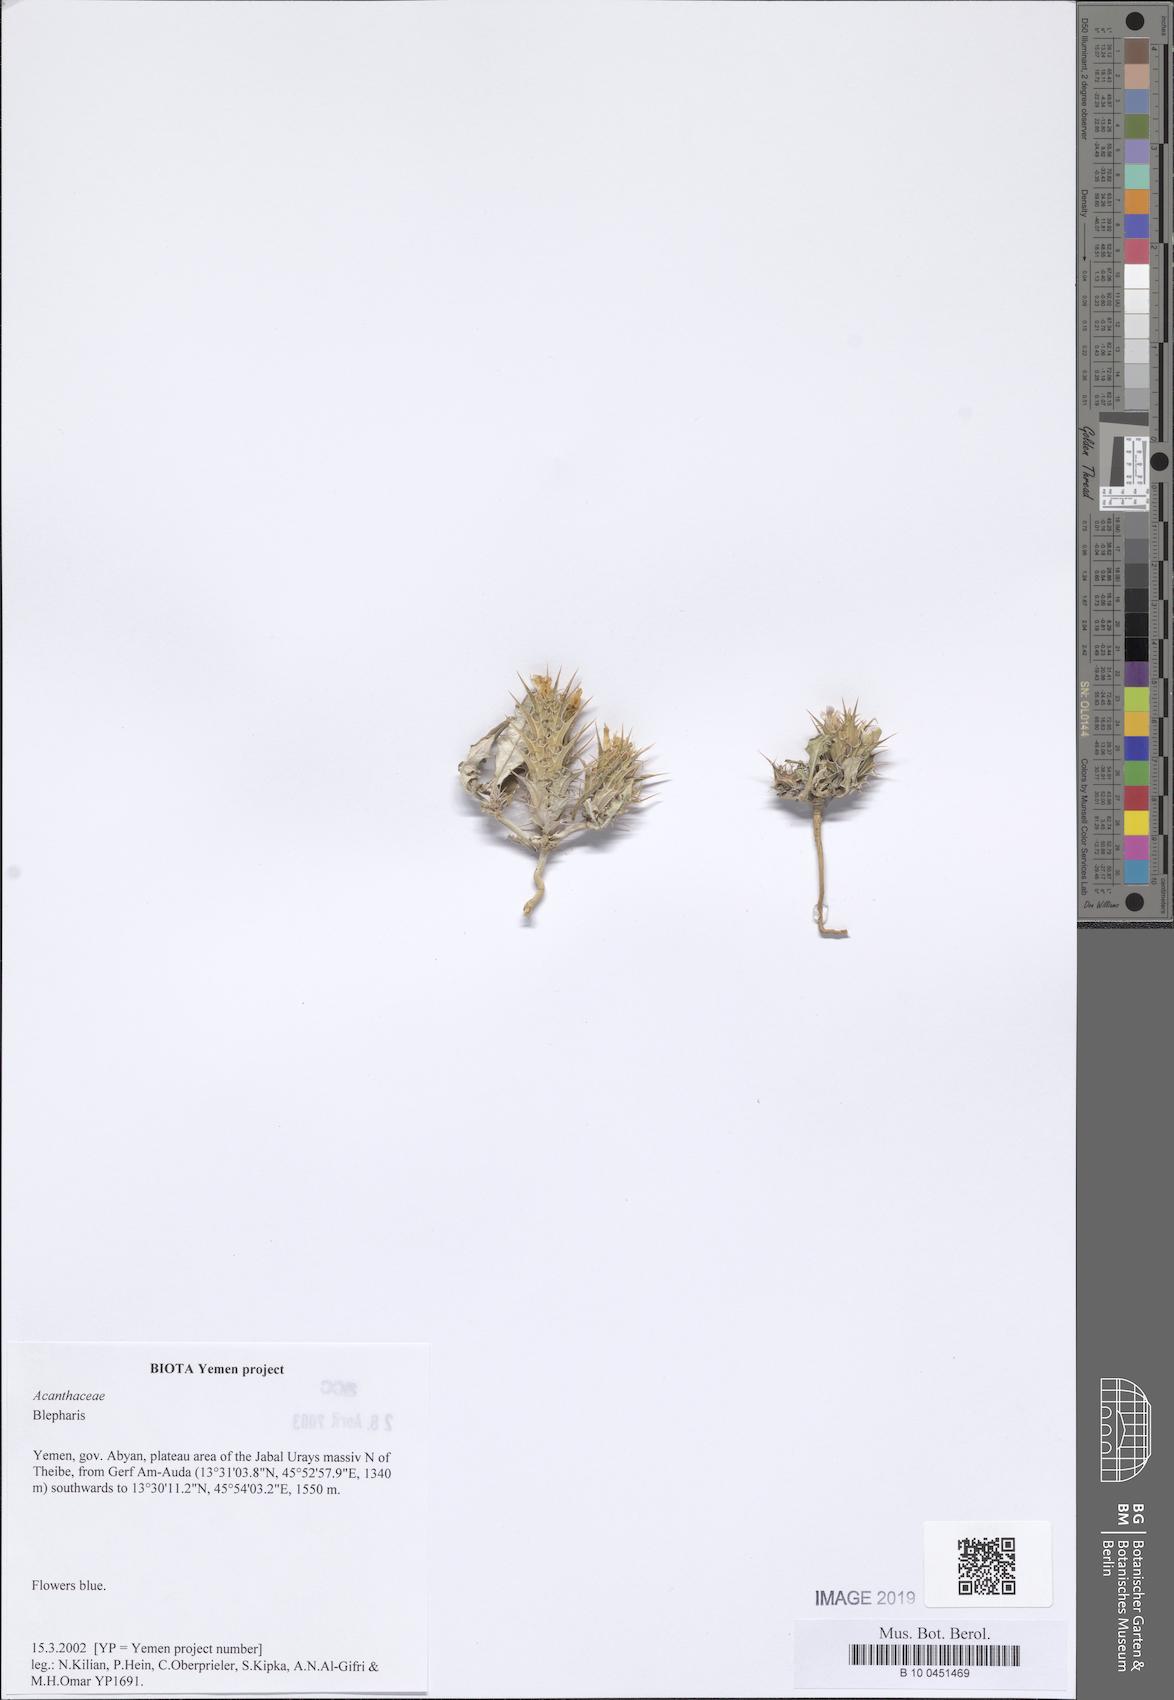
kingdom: Plantae
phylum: Tracheophyta
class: Magnoliopsida
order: Lamiales
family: Acanthaceae
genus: Blepharis
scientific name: Blepharis
